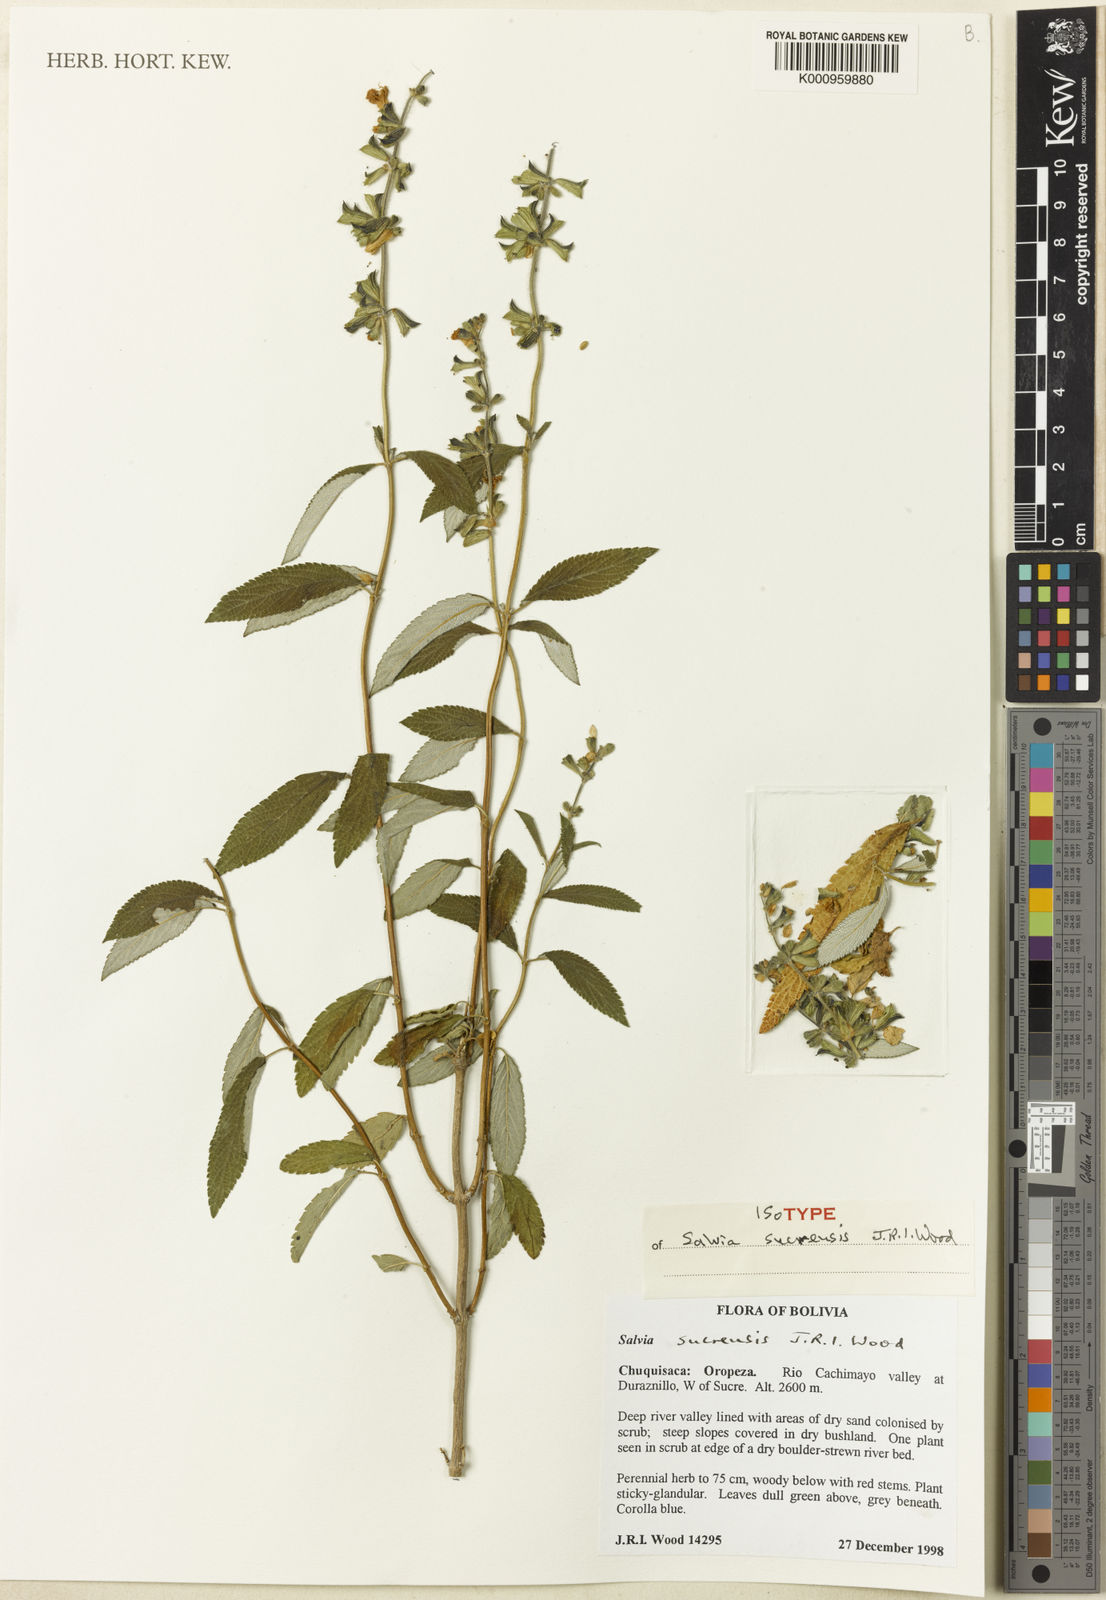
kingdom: Plantae
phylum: Tracheophyta
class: Magnoliopsida
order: Lamiales
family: Lamiaceae
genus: Salvia
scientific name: Salvia sucrensis
